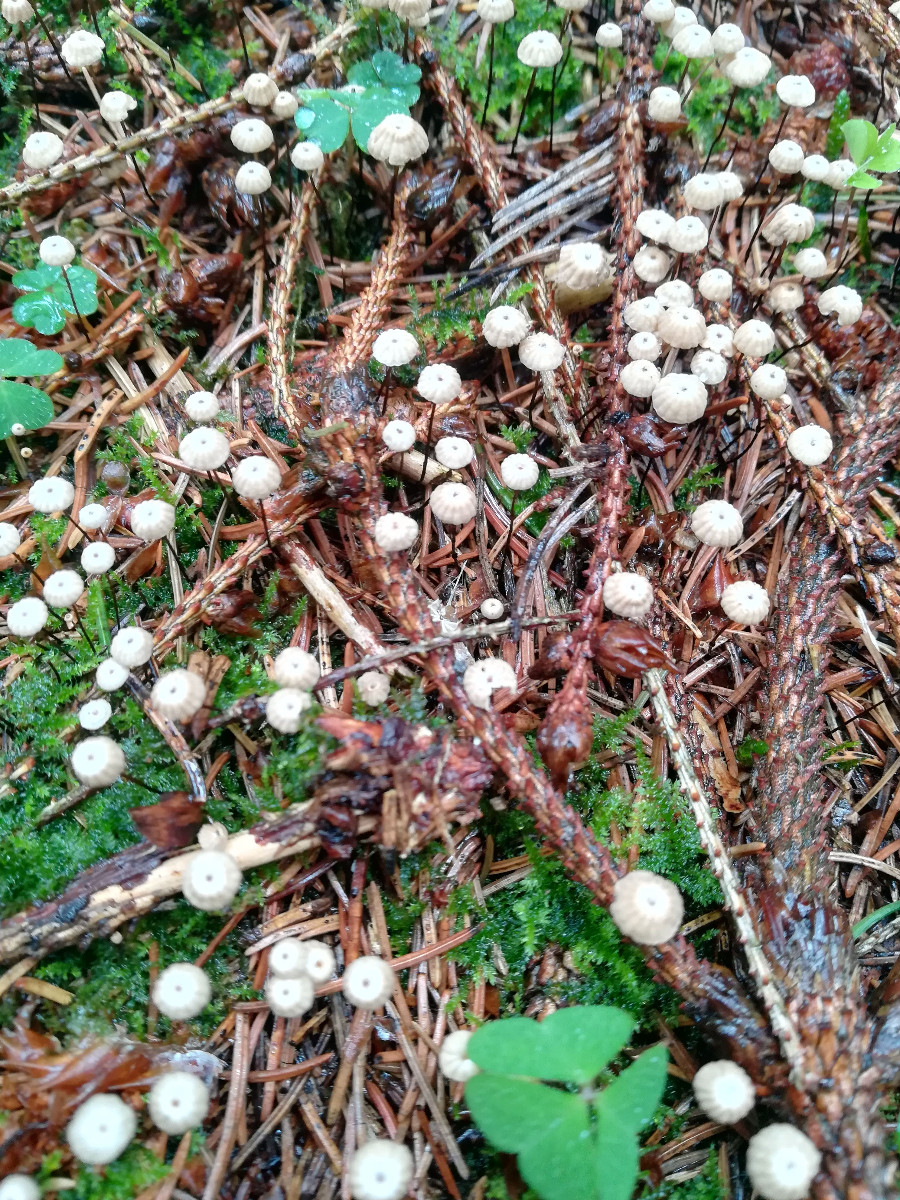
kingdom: Fungi
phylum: Basidiomycota
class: Agaricomycetes
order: Agaricales
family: Omphalotaceae
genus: Paragymnopus
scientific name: Paragymnopus perforans
